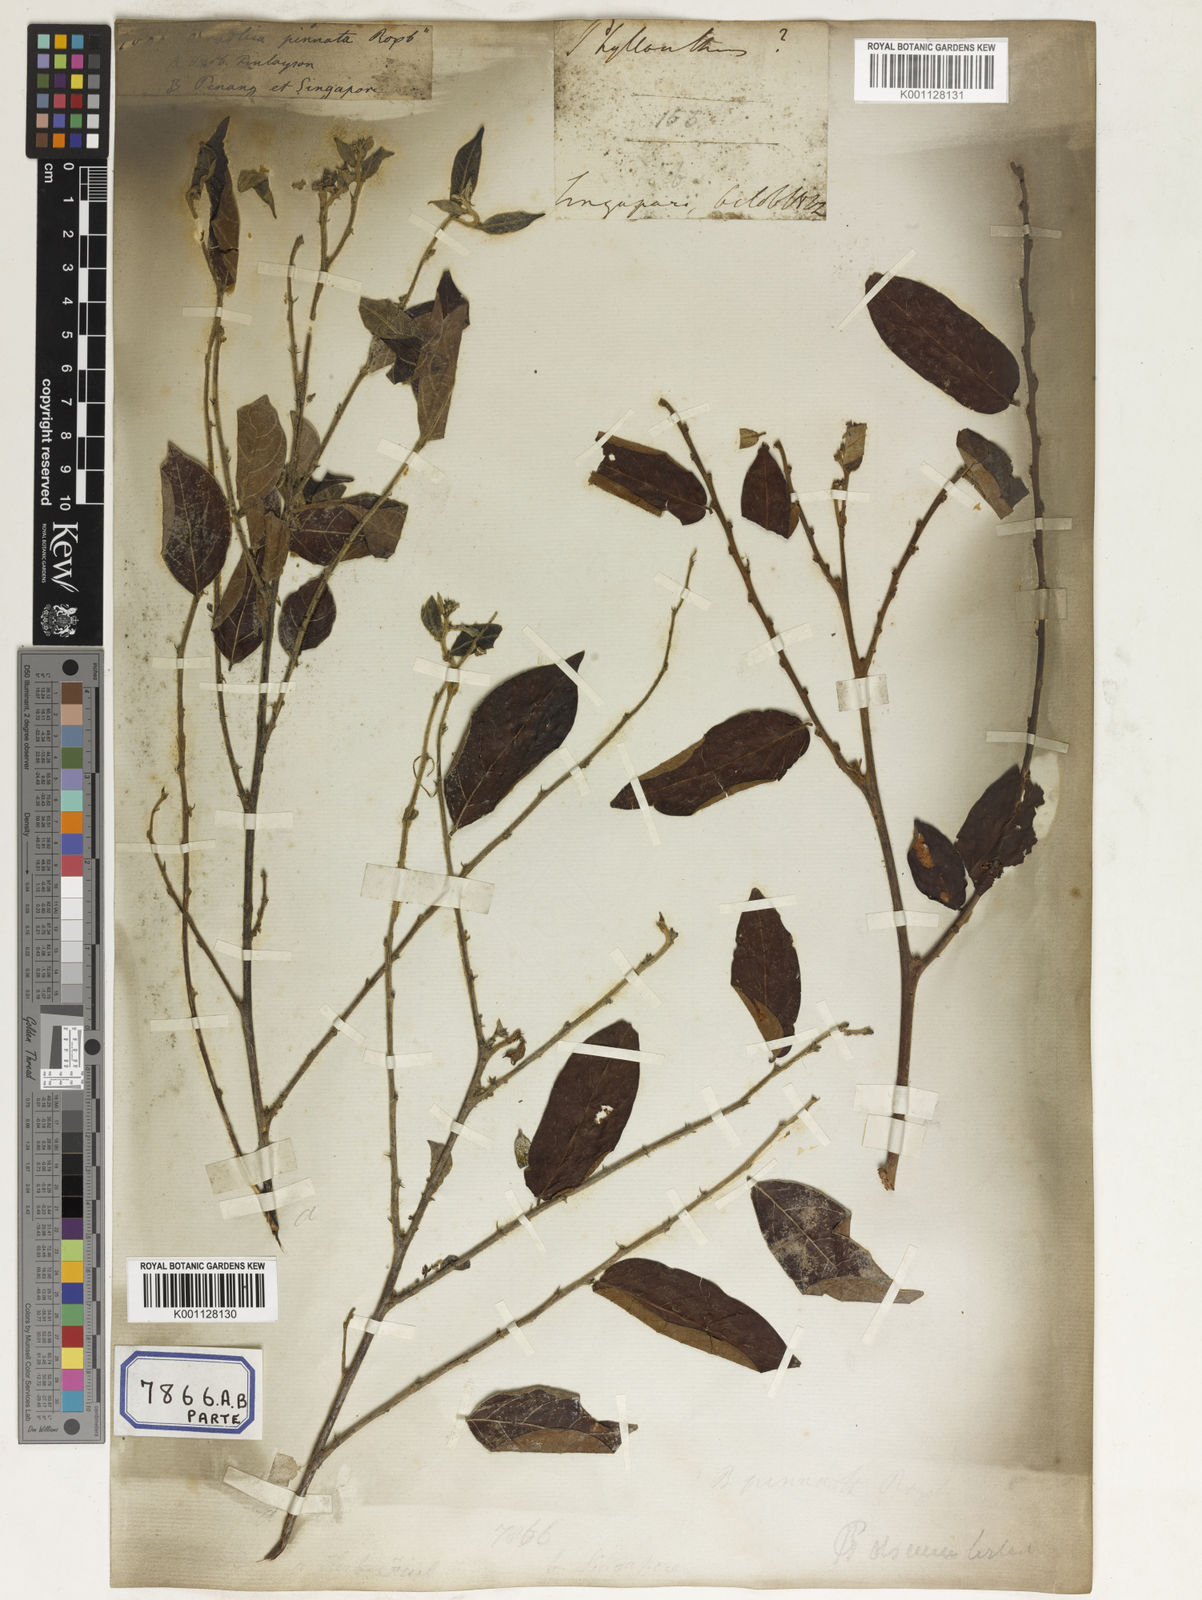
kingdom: Plantae
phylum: Tracheophyta
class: Magnoliopsida
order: Malpighiales
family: Euphorbiaceae
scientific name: Euphorbiaceae
